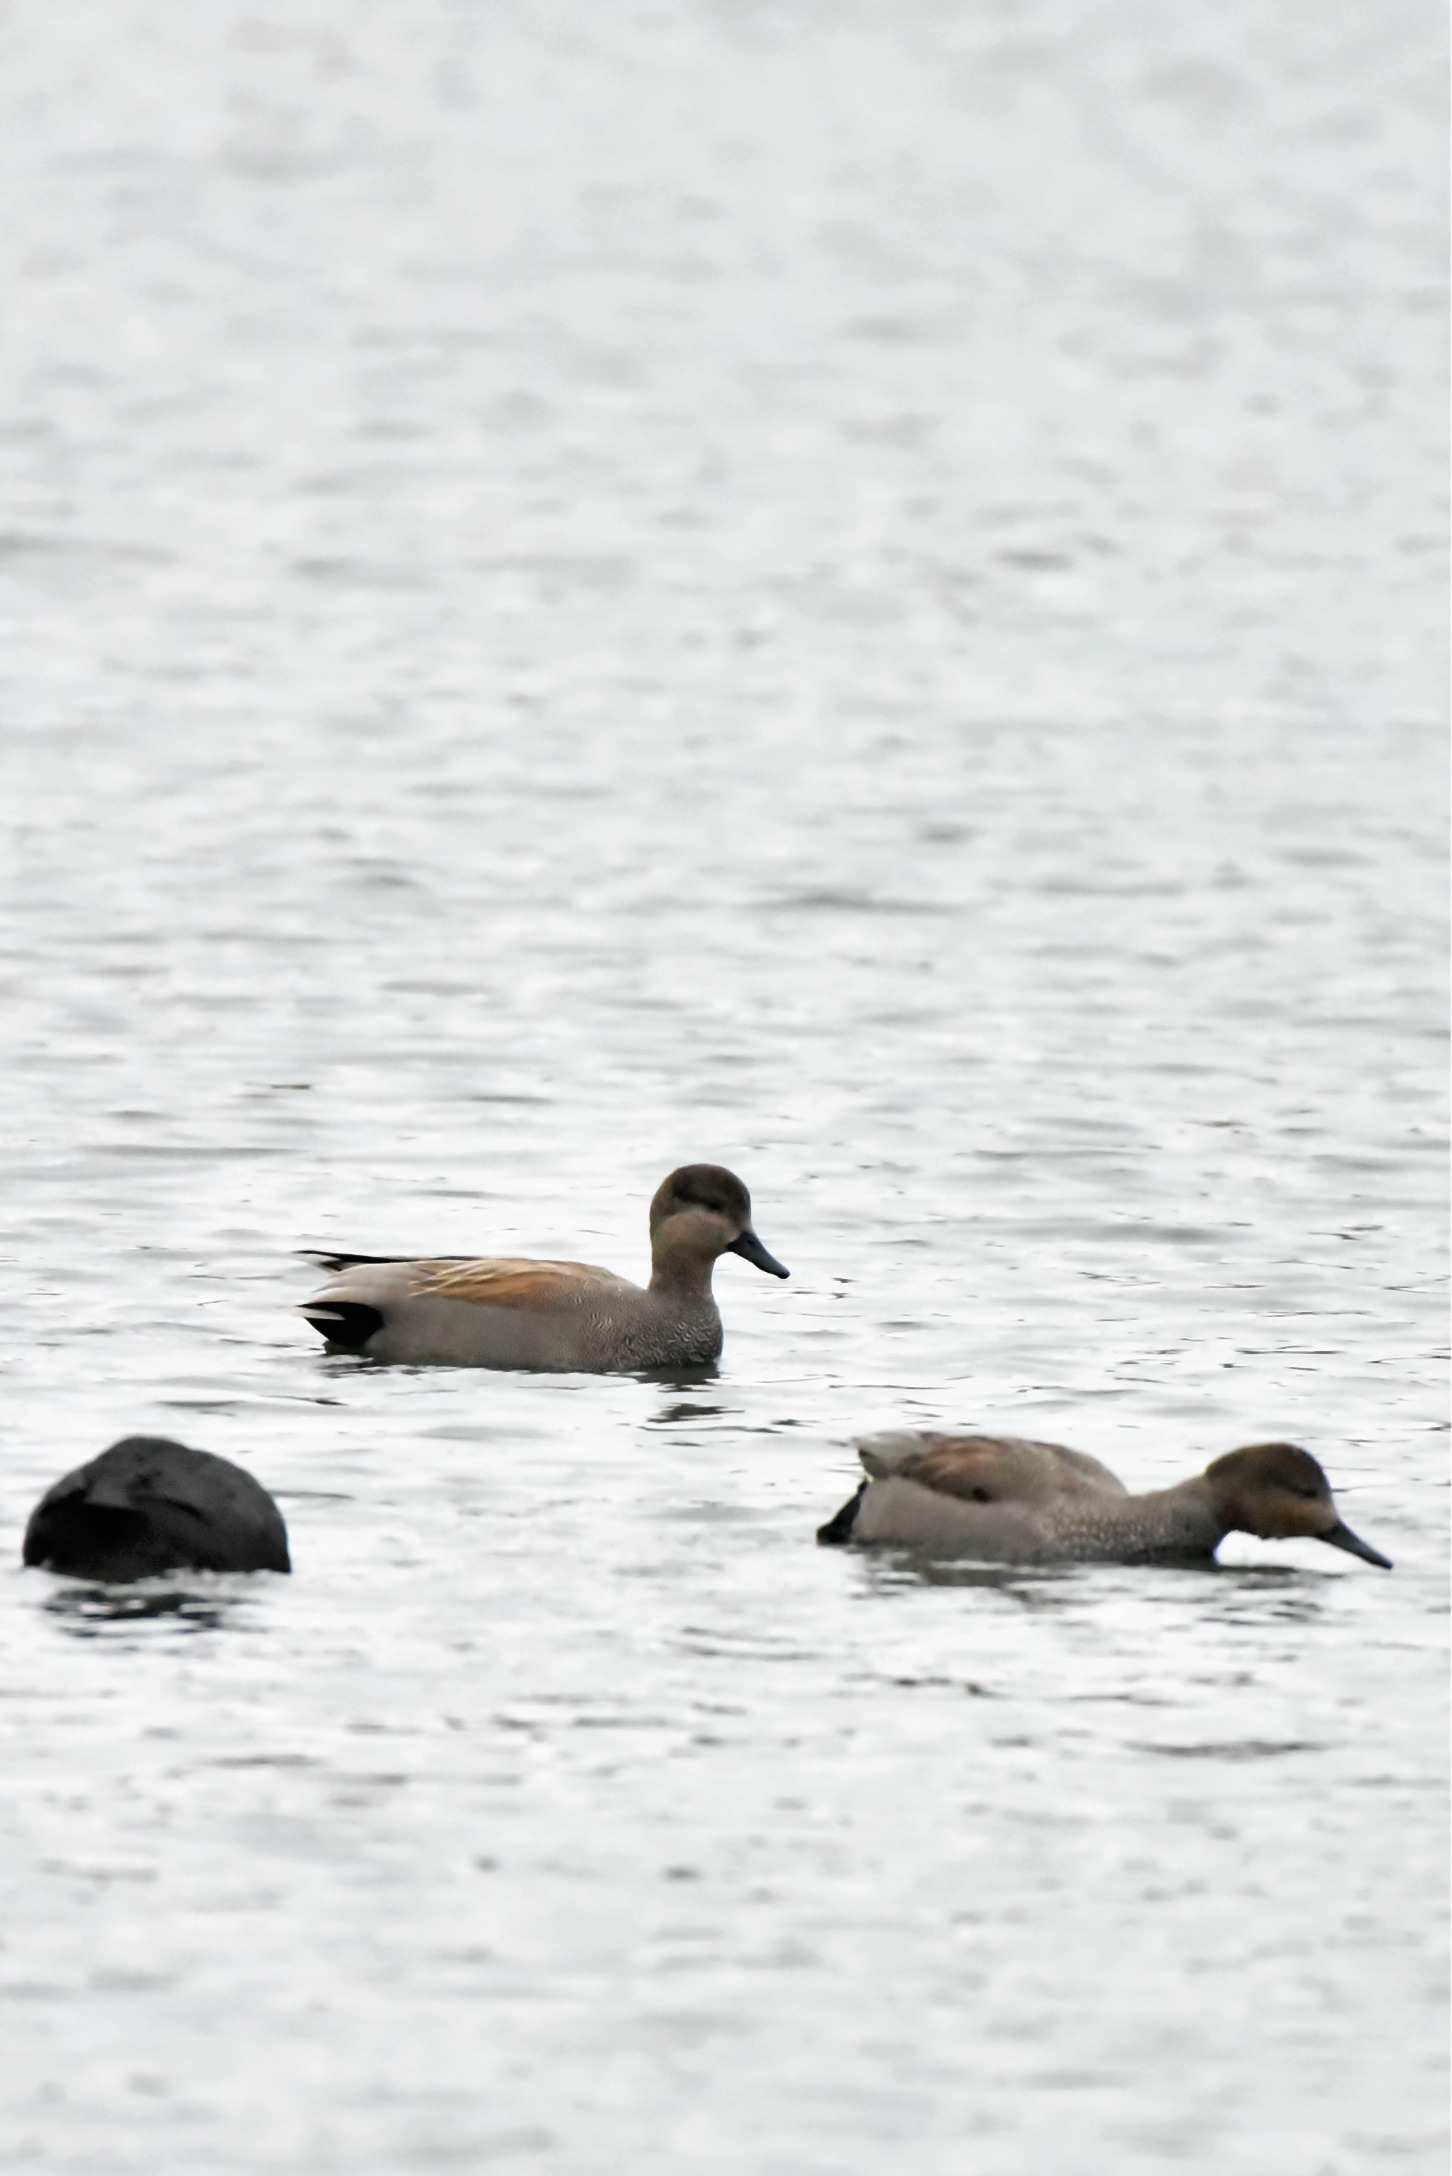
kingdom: Animalia
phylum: Chordata
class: Aves
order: Anseriformes
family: Anatidae
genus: Mareca
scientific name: Mareca strepera
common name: Knarand
